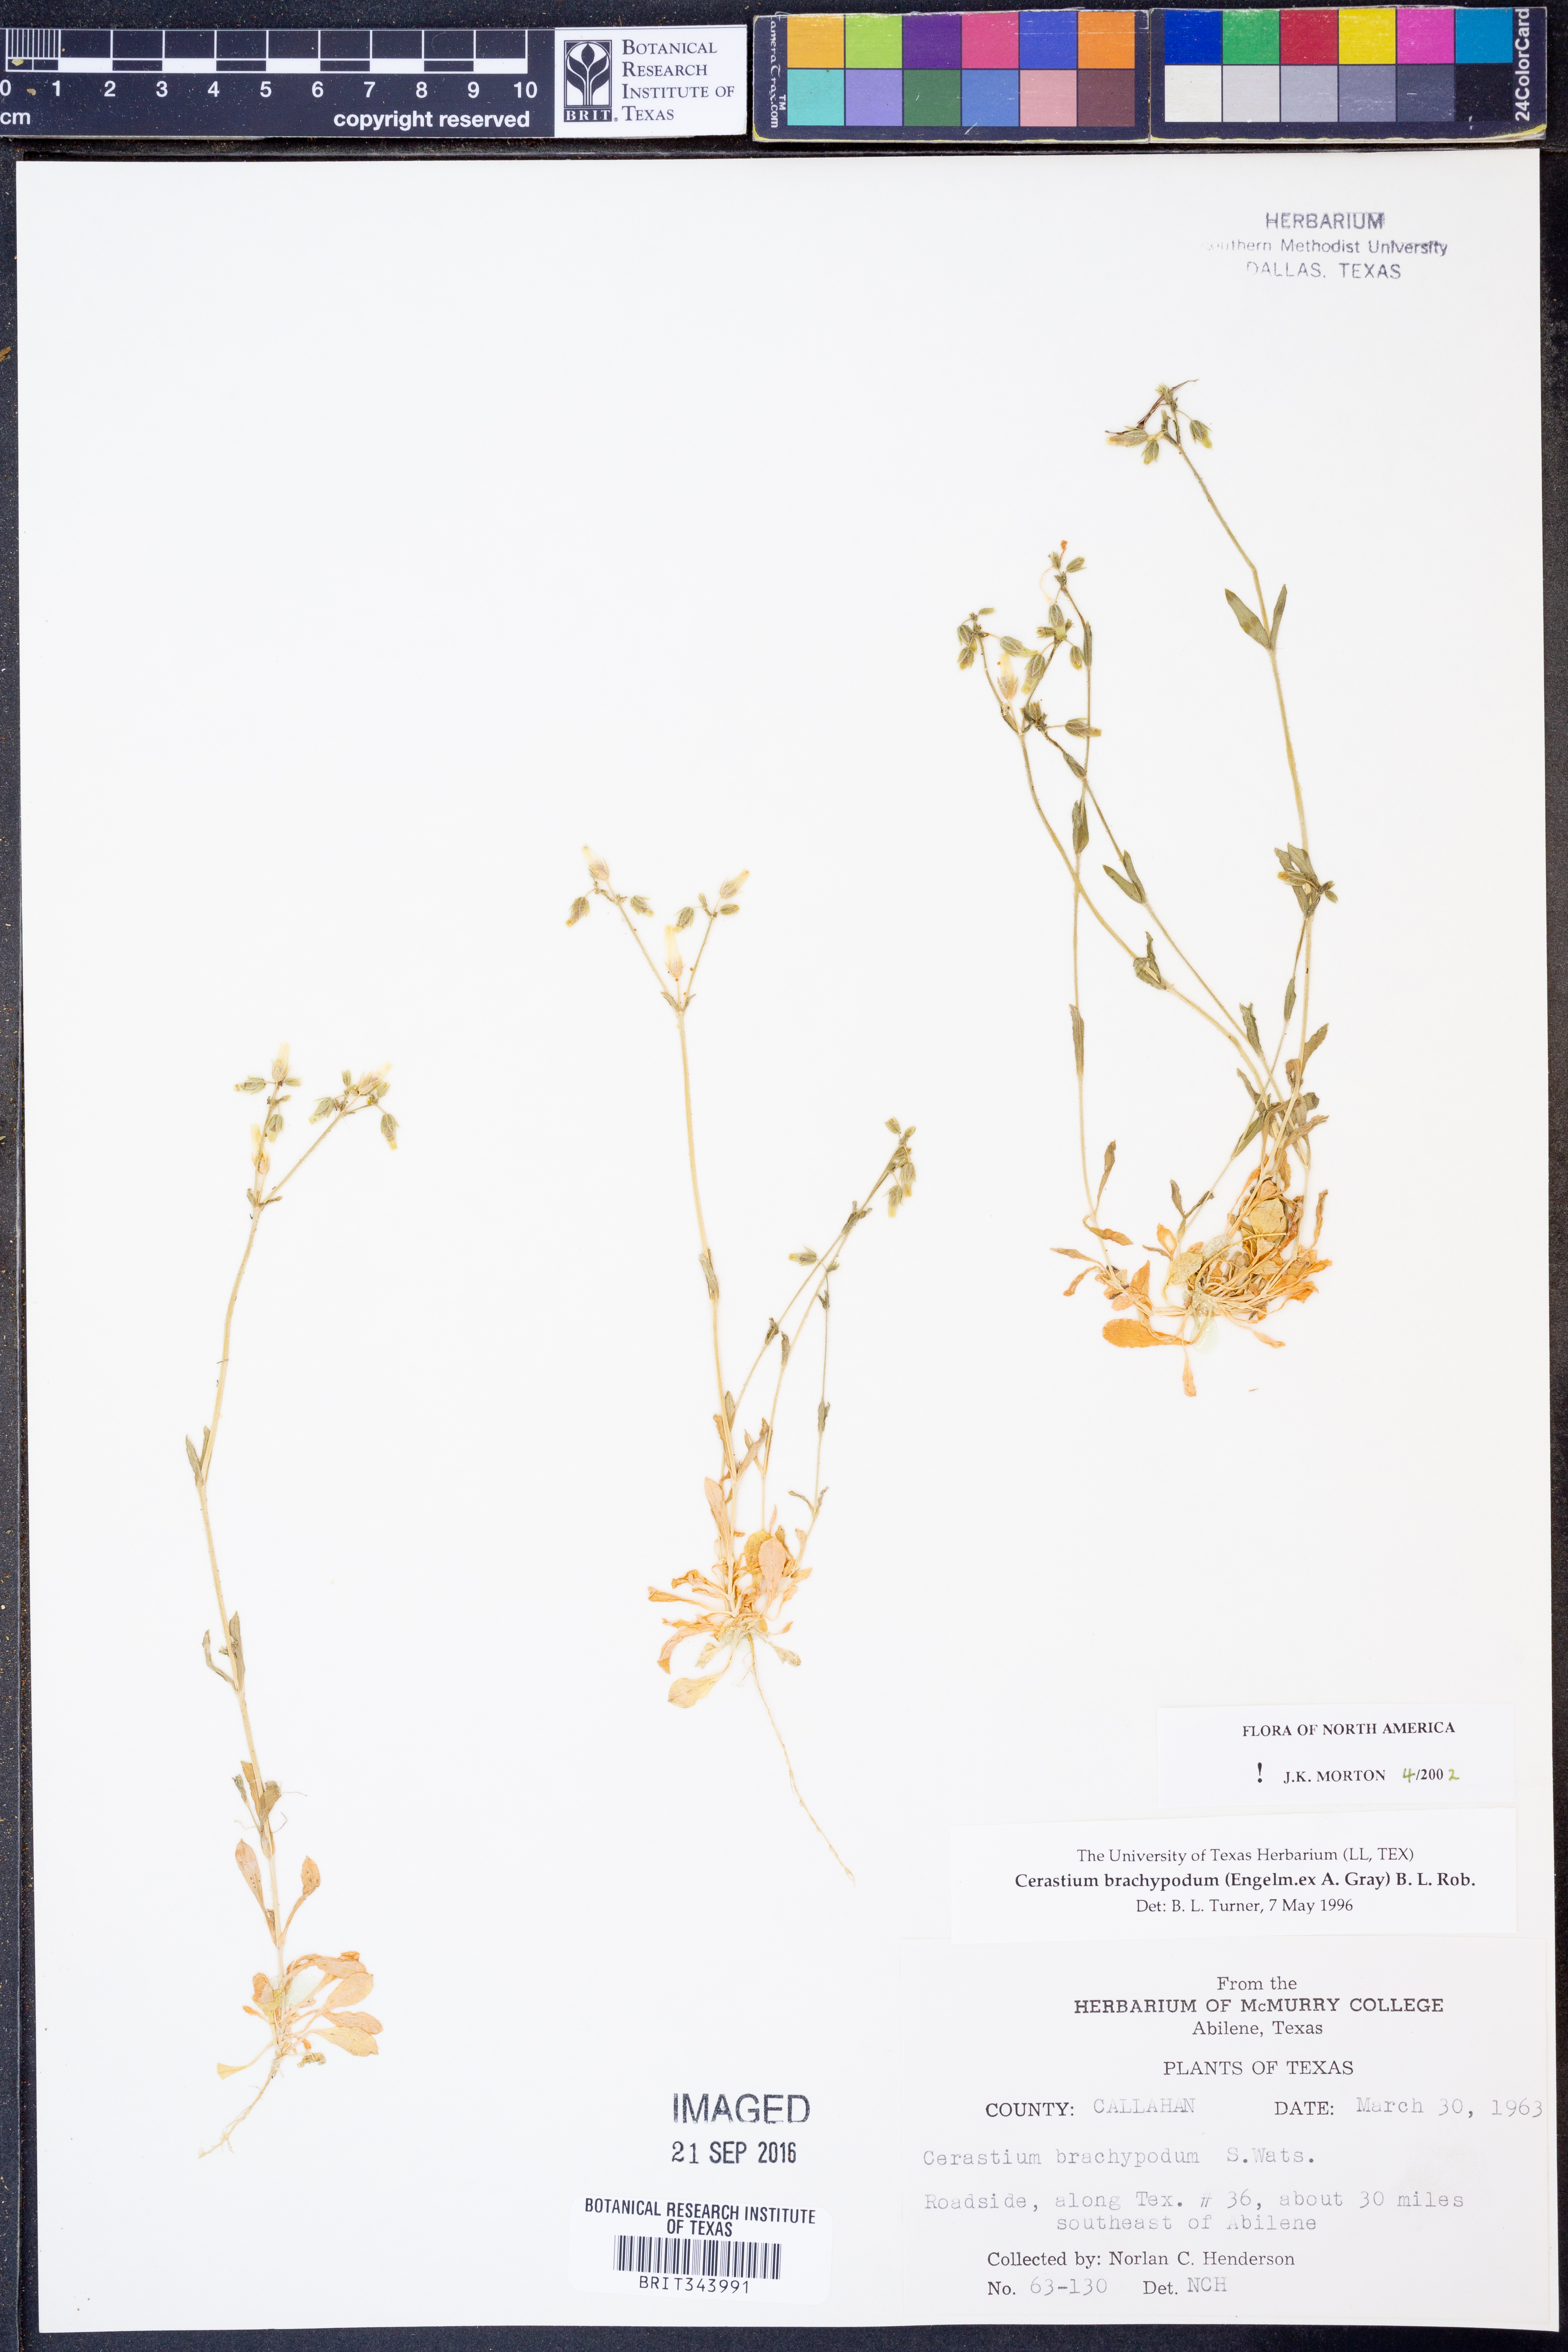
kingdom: Plantae
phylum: Tracheophyta
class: Magnoliopsida
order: Caryophyllales
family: Caryophyllaceae
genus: Cerastium
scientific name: Cerastium brachypodum
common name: Short-pedicelled nodding chickweed
